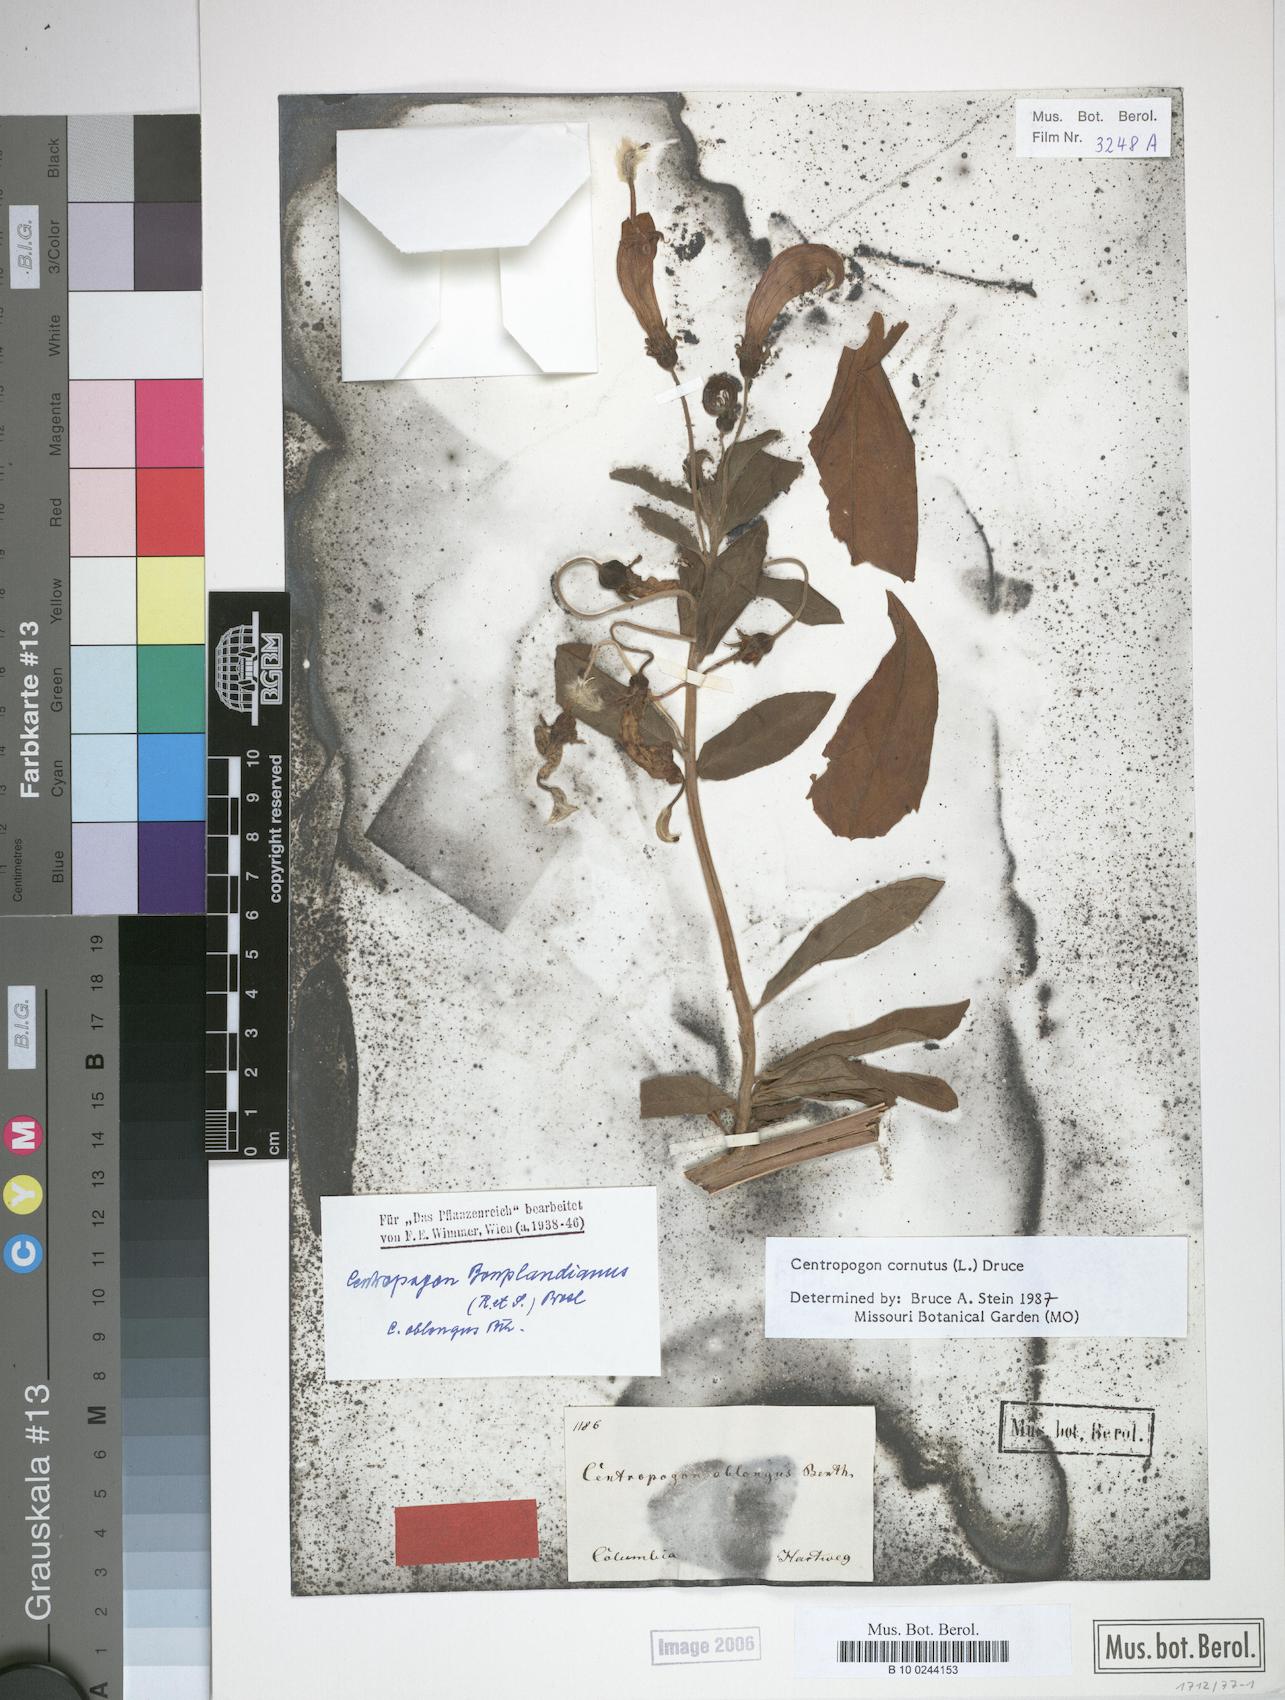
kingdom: Plantae
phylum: Tracheophyta
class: Magnoliopsida
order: Asterales
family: Campanulaceae
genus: Centropogon
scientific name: Centropogon cornutus
